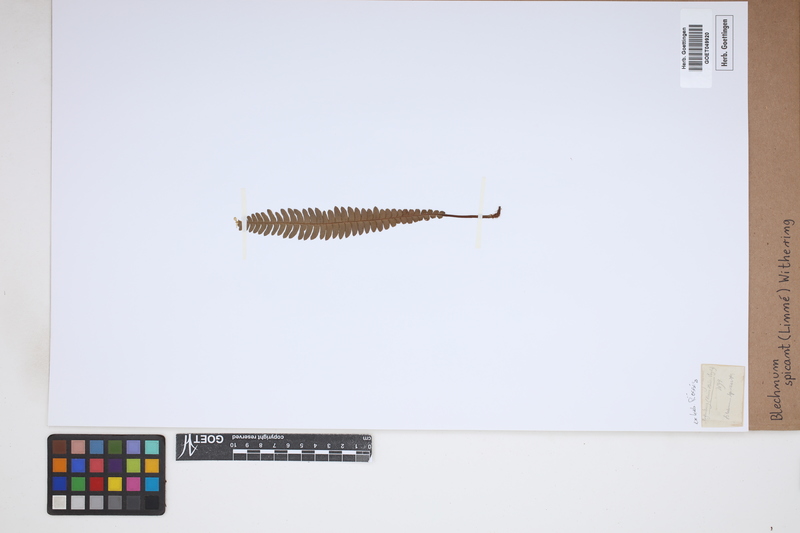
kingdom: Plantae
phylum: Tracheophyta
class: Polypodiopsida
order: Polypodiales
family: Blechnaceae
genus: Struthiopteris
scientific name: Struthiopteris spicant
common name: Deer fern
